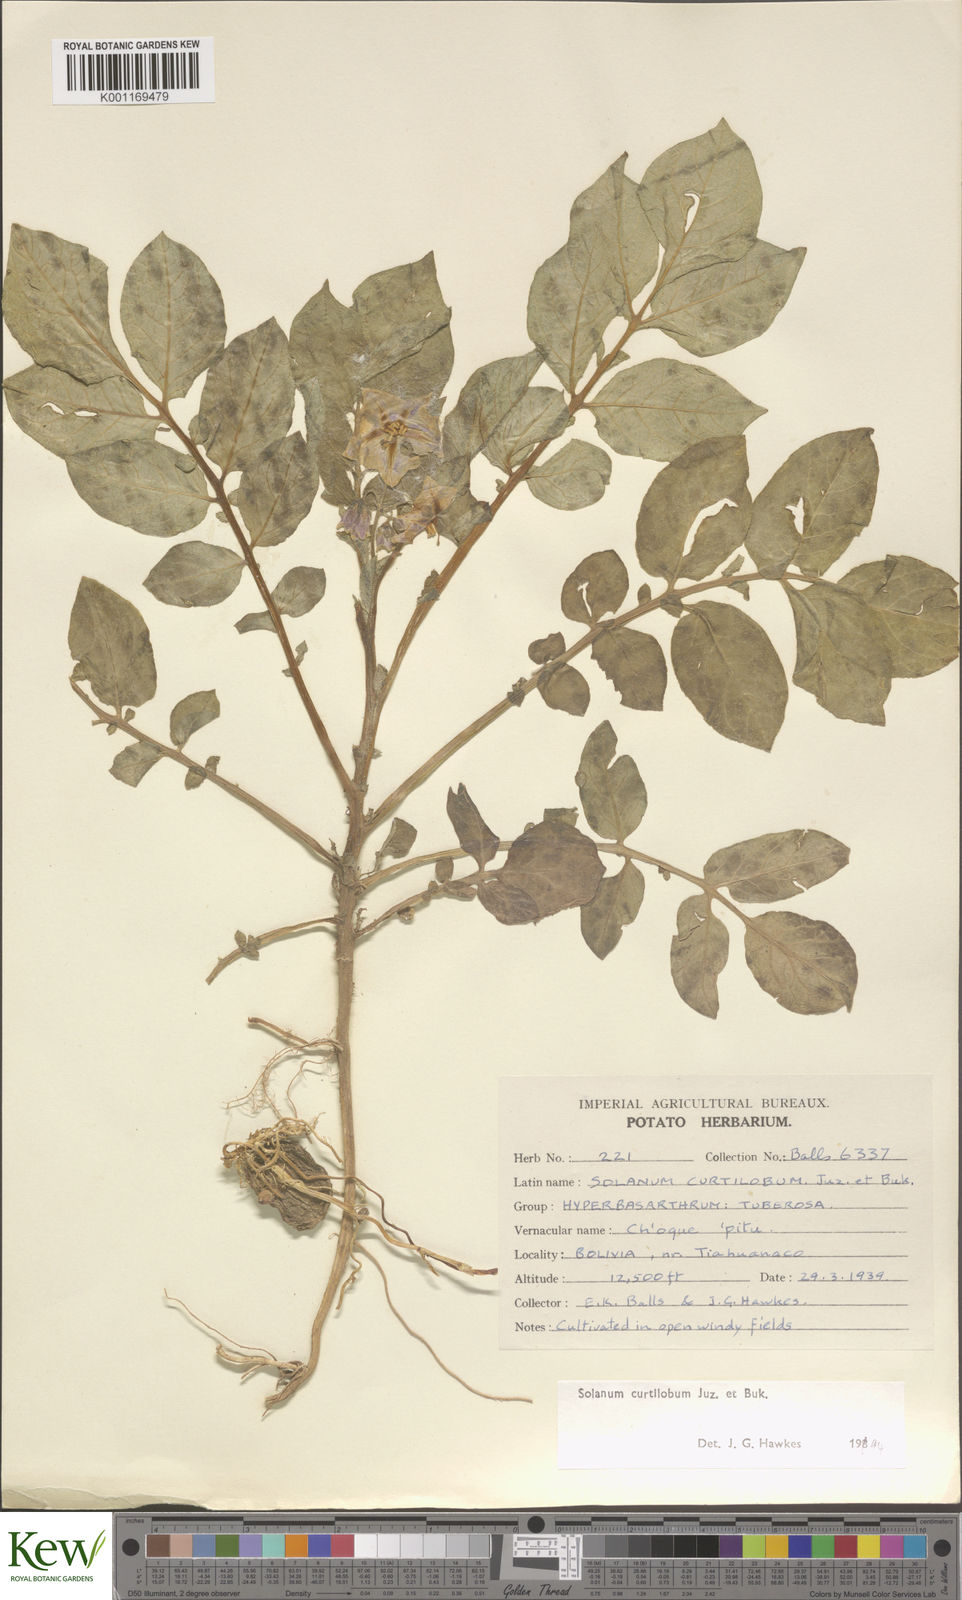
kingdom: Plantae
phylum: Tracheophyta
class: Magnoliopsida
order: Solanales
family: Solanaceae
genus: Solanum
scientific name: Solanum curtilobum
